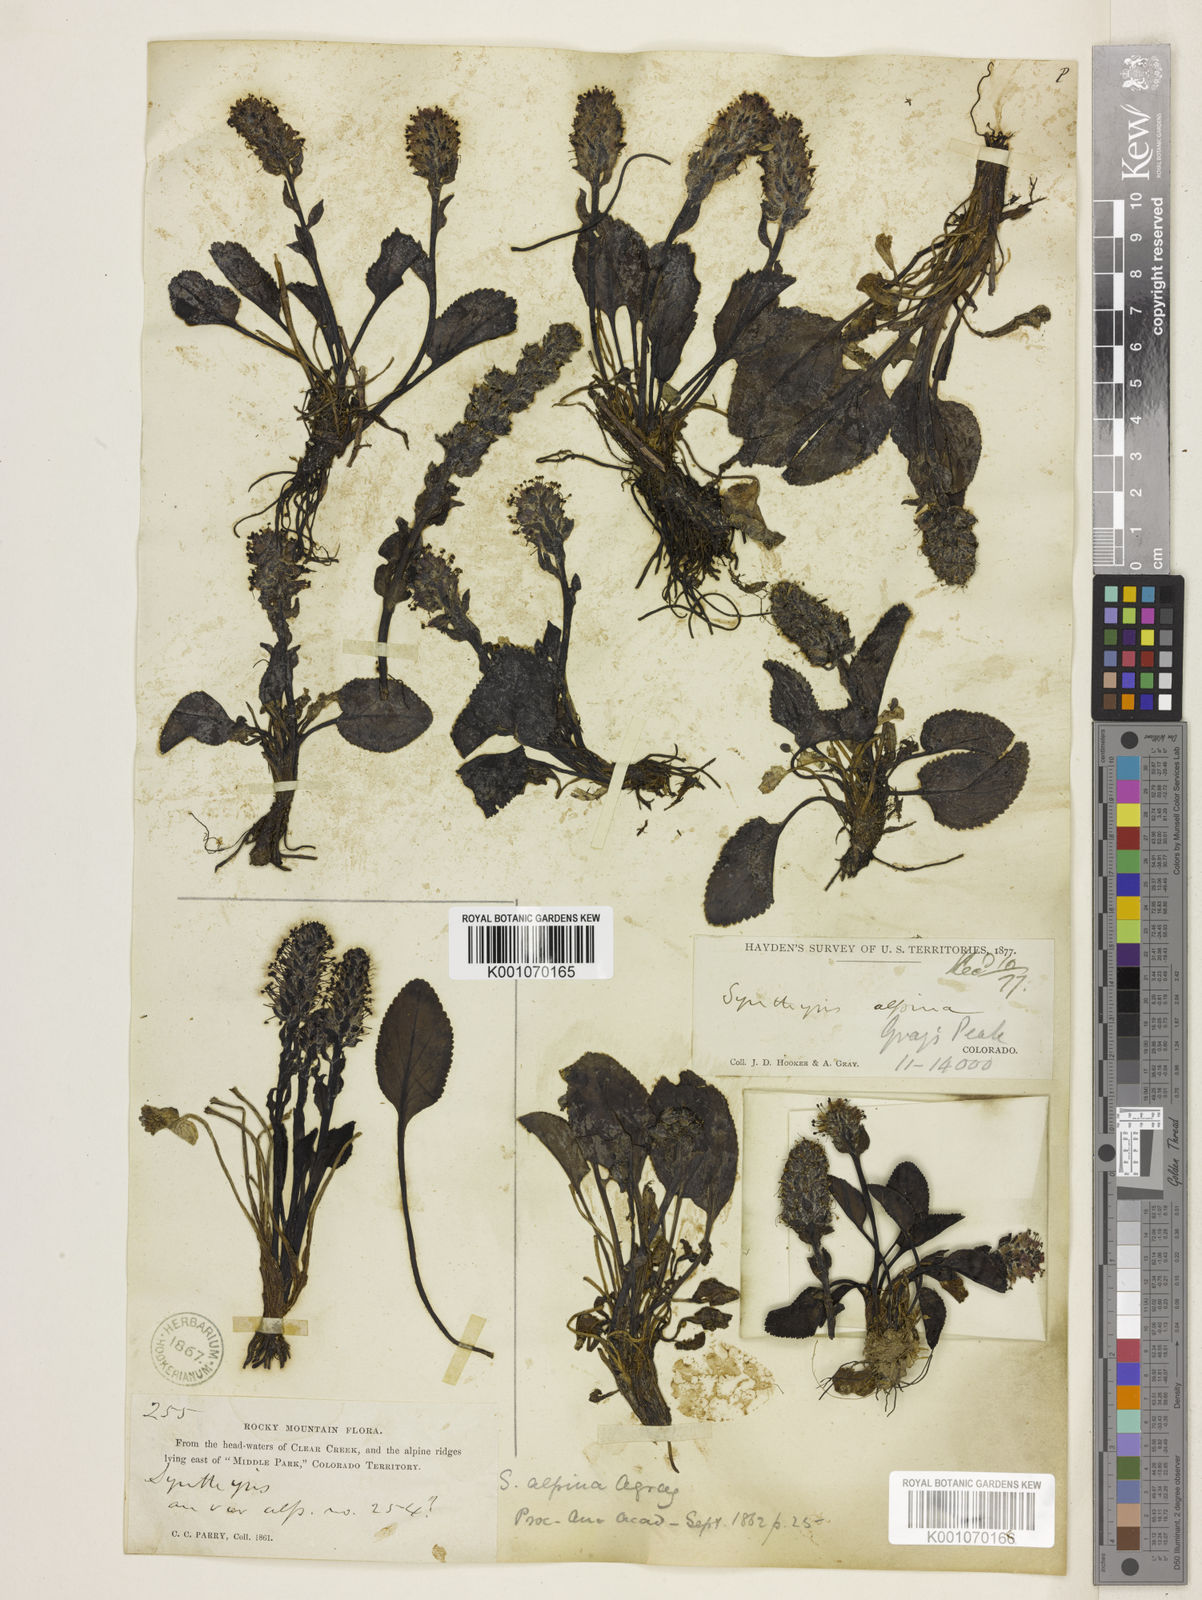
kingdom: Plantae
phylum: Tracheophyta
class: Magnoliopsida
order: Lamiales
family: Plantaginaceae
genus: Synthyris
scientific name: Synthyris alpina
